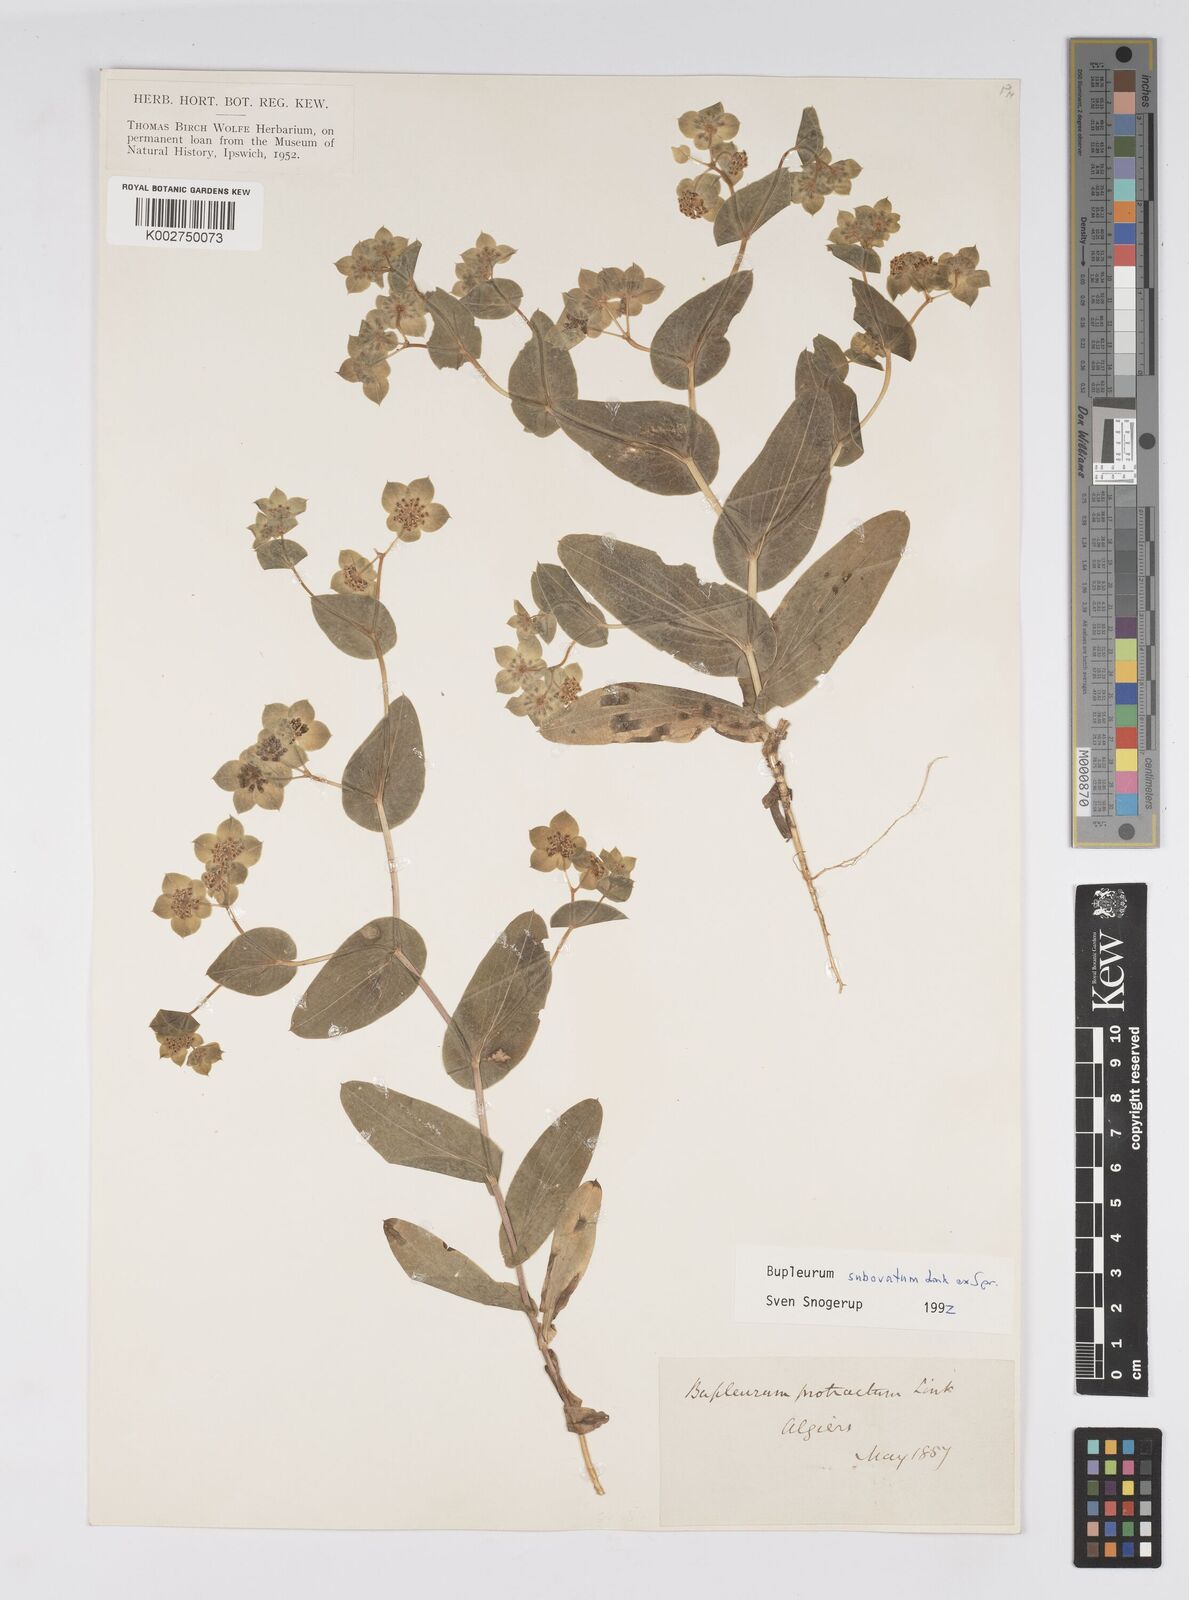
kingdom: Plantae
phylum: Tracheophyta
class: Magnoliopsida
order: Apiales
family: Apiaceae
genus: Bupleurum
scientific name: Bupleurum subovatum
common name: False thorow-wax
